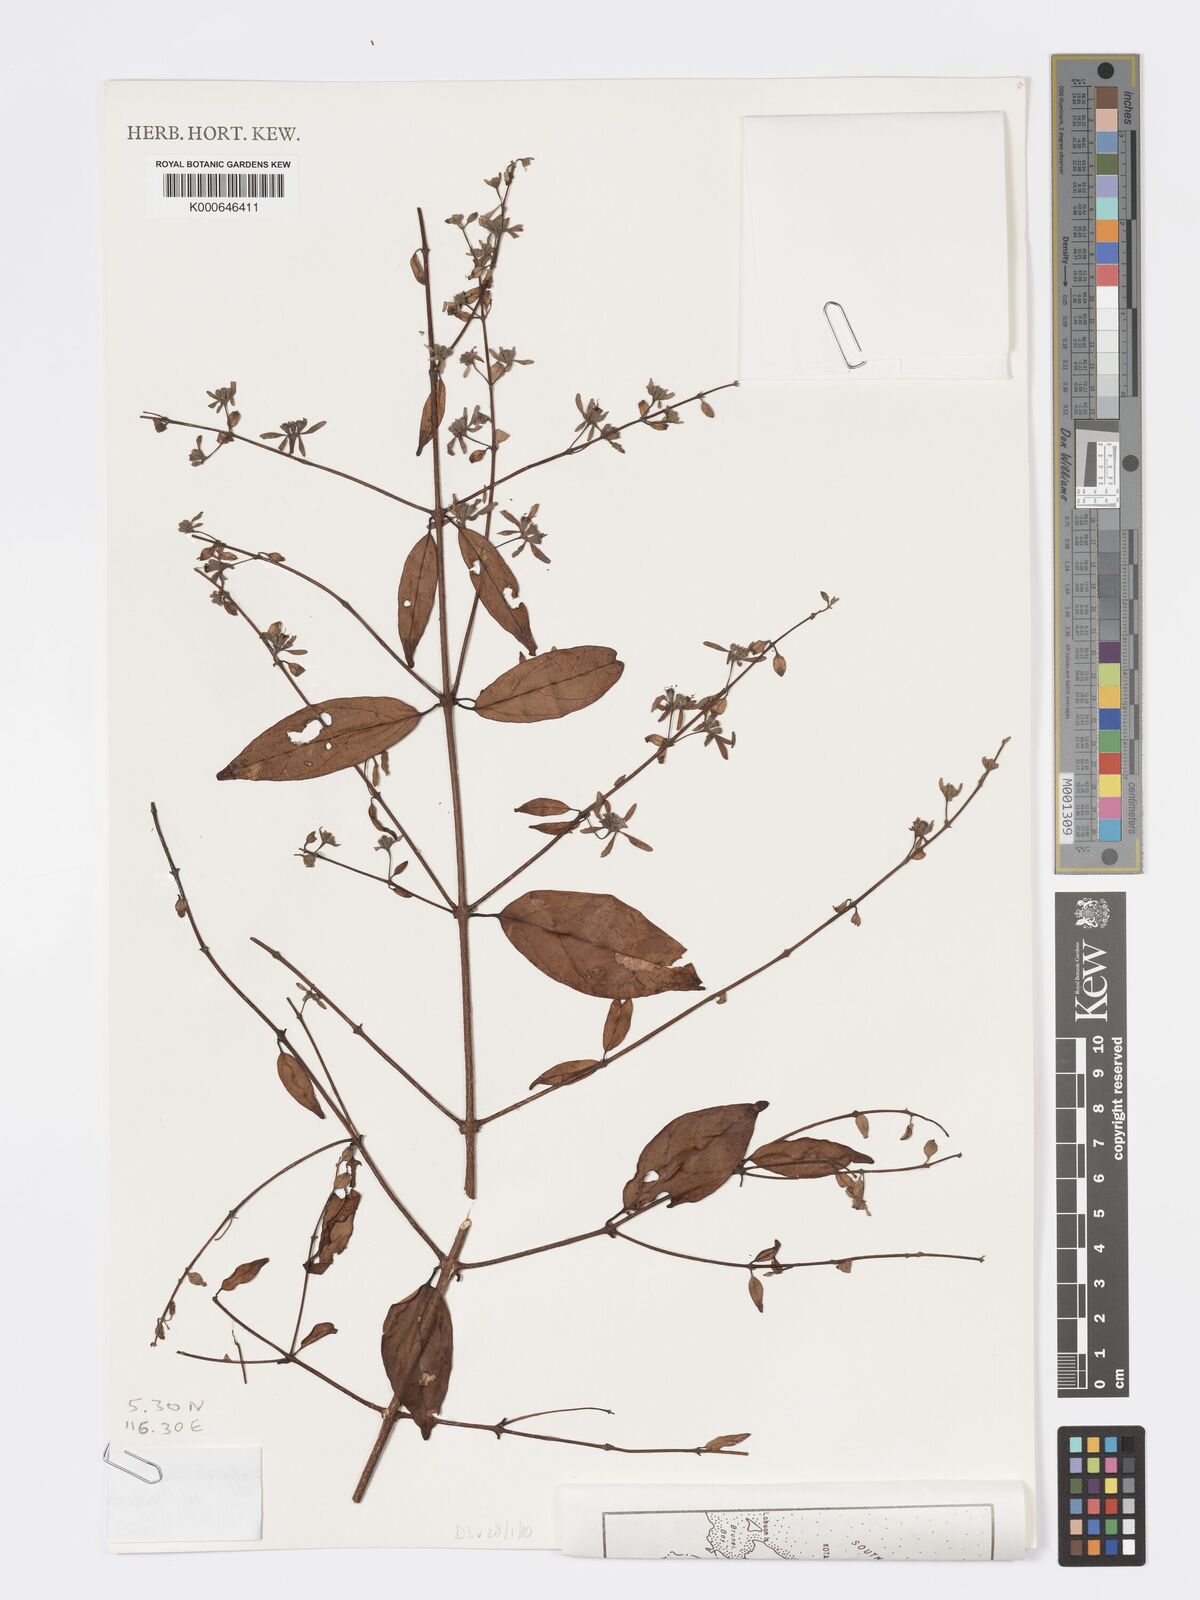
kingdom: Plantae
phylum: Tracheophyta
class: Magnoliopsida
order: Lamiales
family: Lamiaceae
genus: Sphenodesme
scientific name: Sphenodesme
